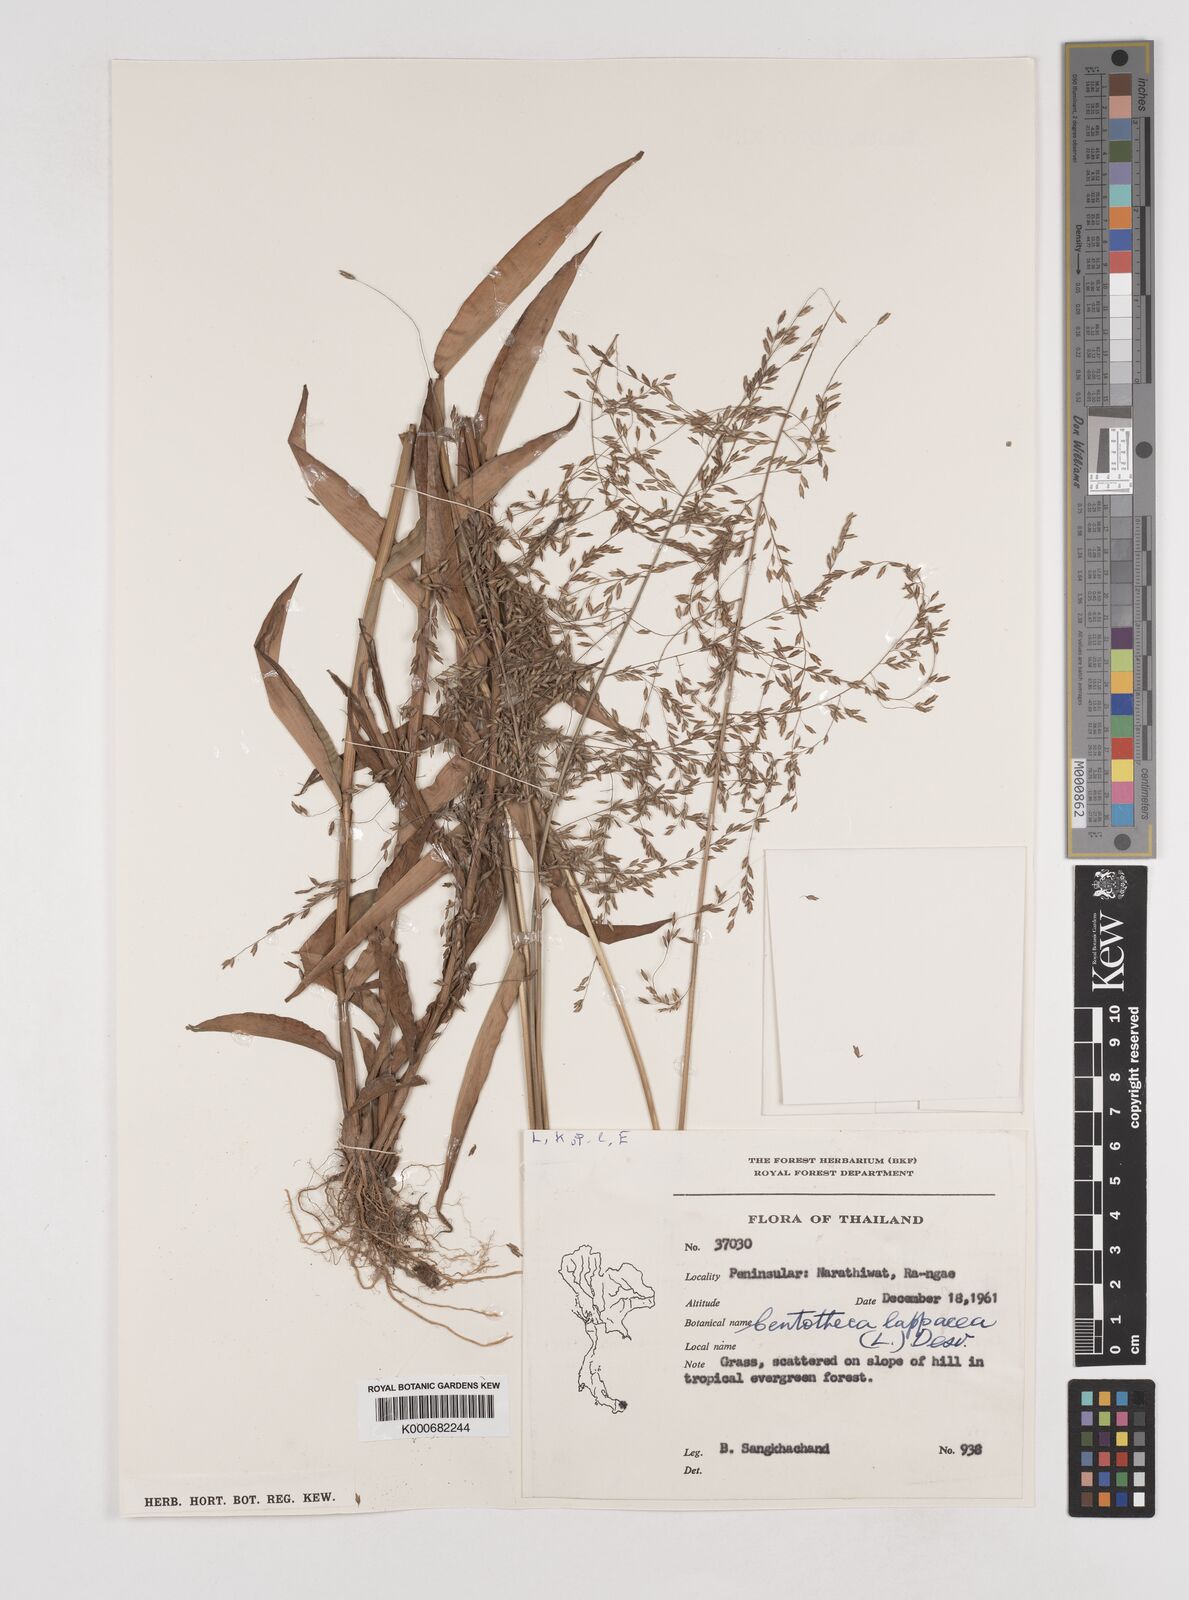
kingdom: Plantae
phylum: Tracheophyta
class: Liliopsida
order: Poales
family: Poaceae
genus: Centotheca
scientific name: Centotheca lappacea
